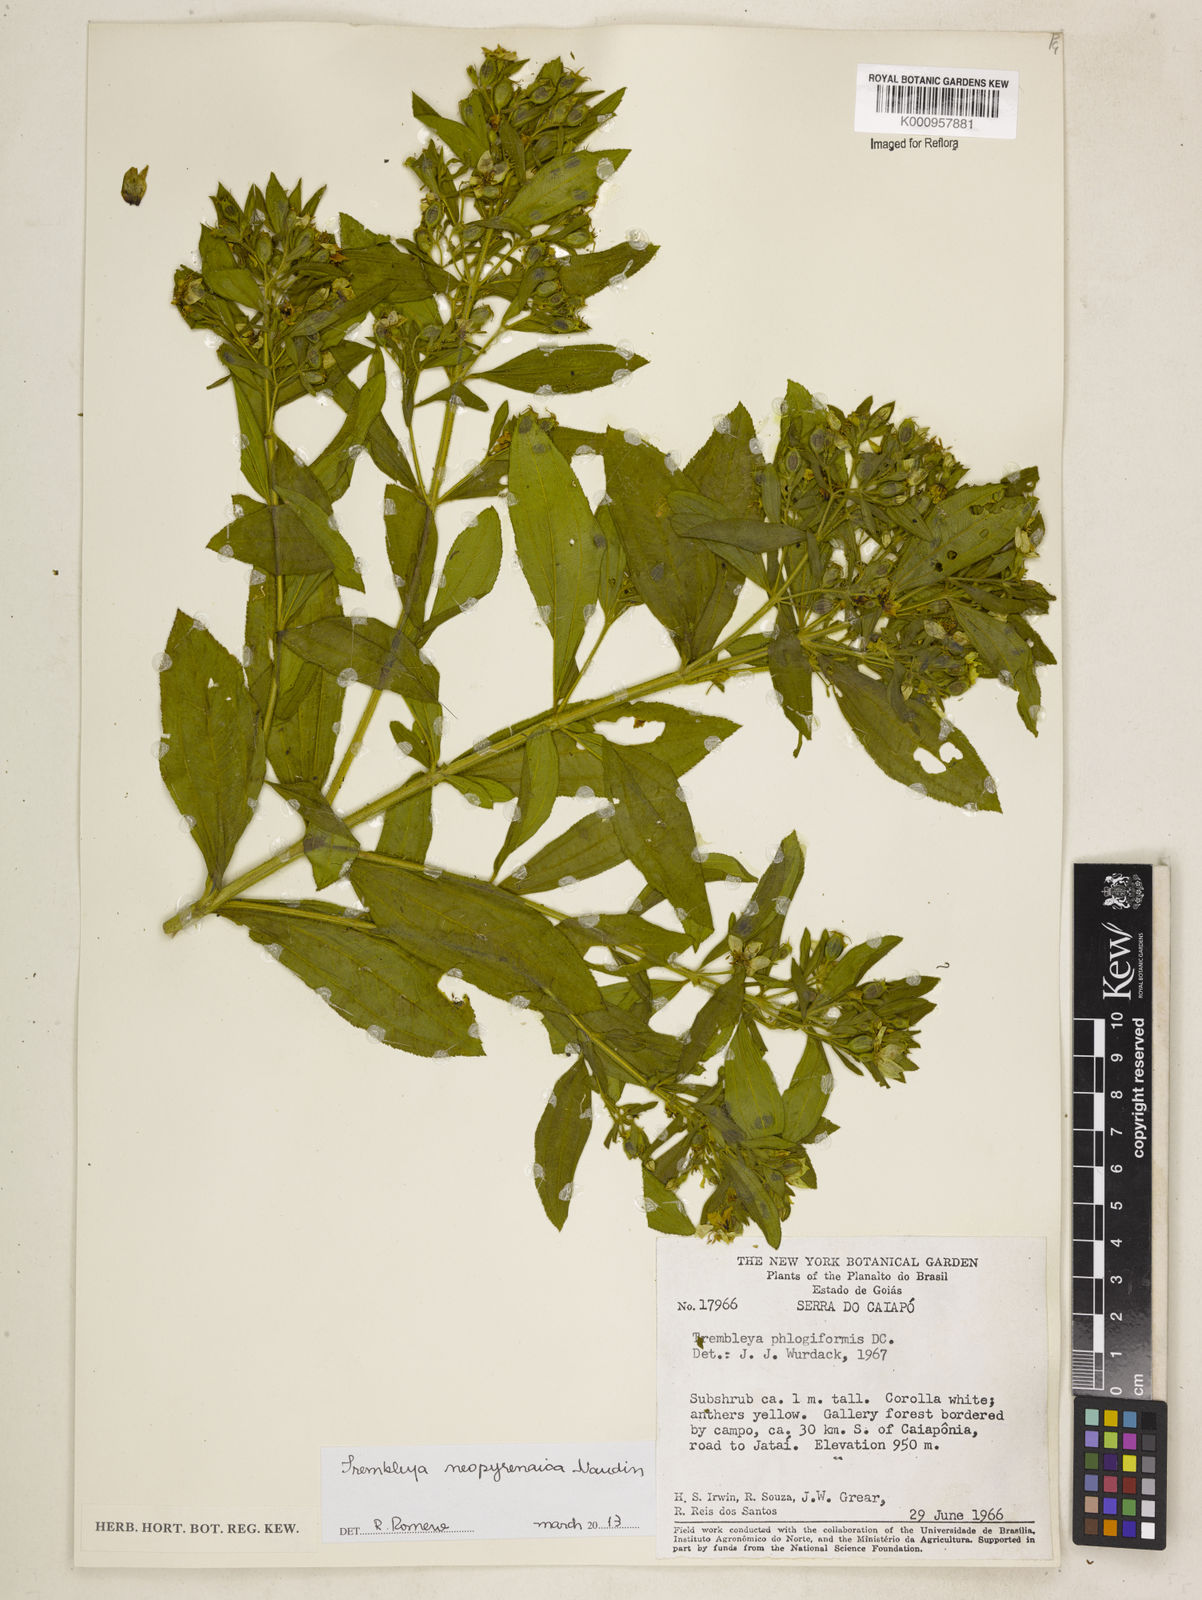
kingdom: Plantae
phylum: Tracheophyta
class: Magnoliopsida
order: Myrtales
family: Melastomataceae
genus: Microlicia
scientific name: Microlicia neopyrenaica
